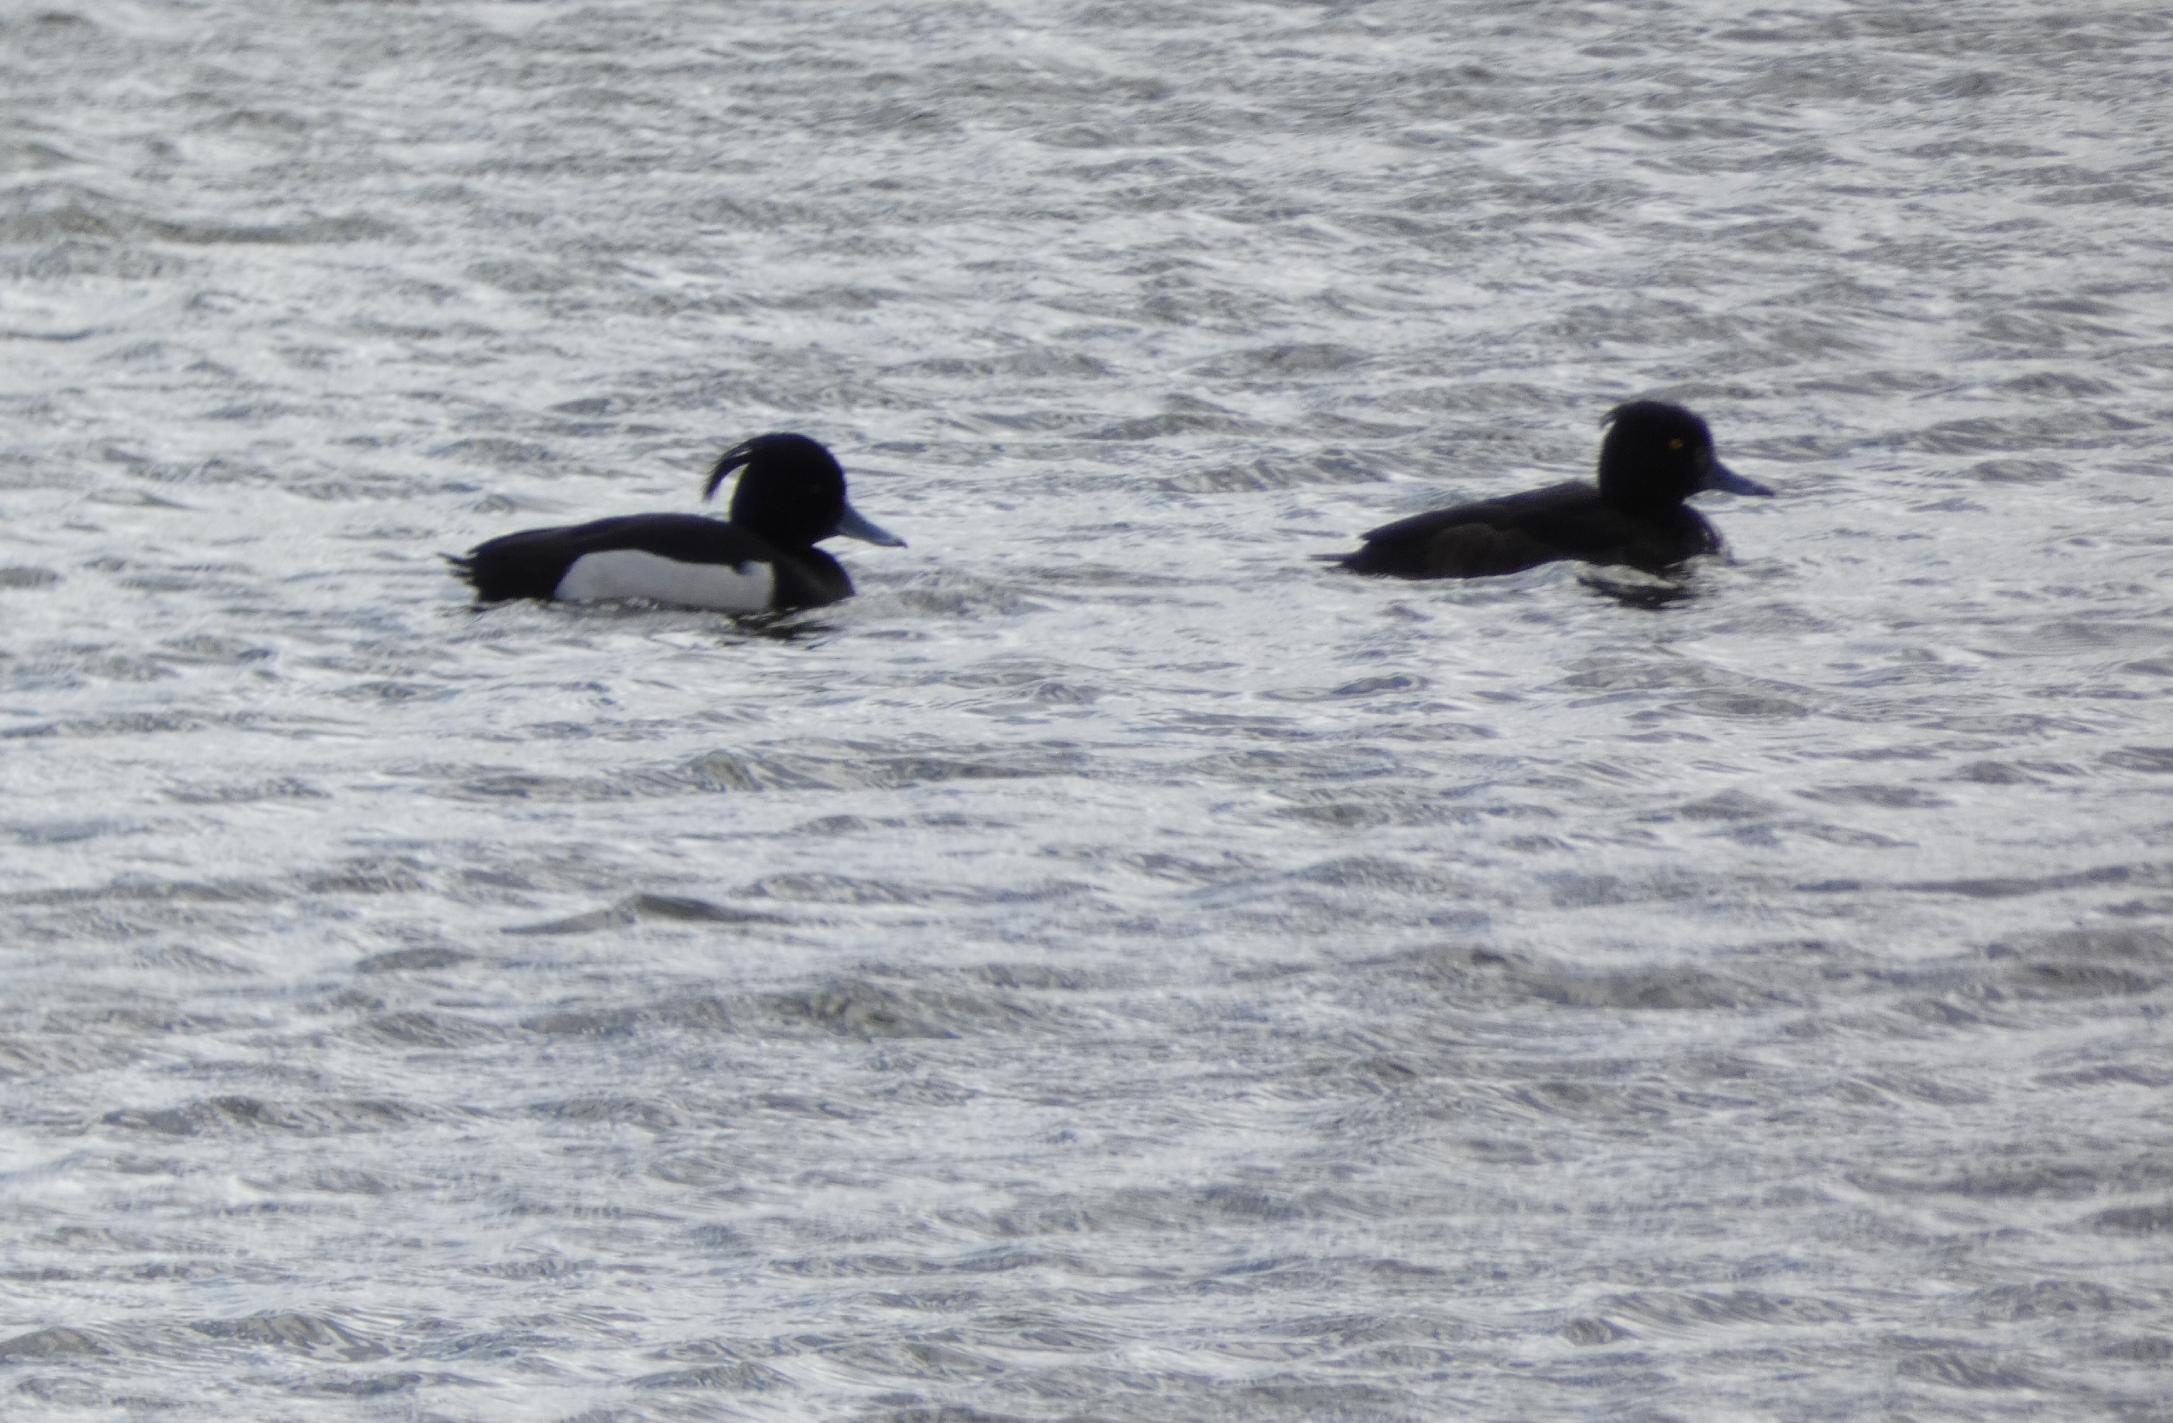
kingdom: Animalia
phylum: Chordata
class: Aves
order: Anseriformes
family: Anatidae
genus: Aythya
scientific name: Aythya fuligula
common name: Troldand
